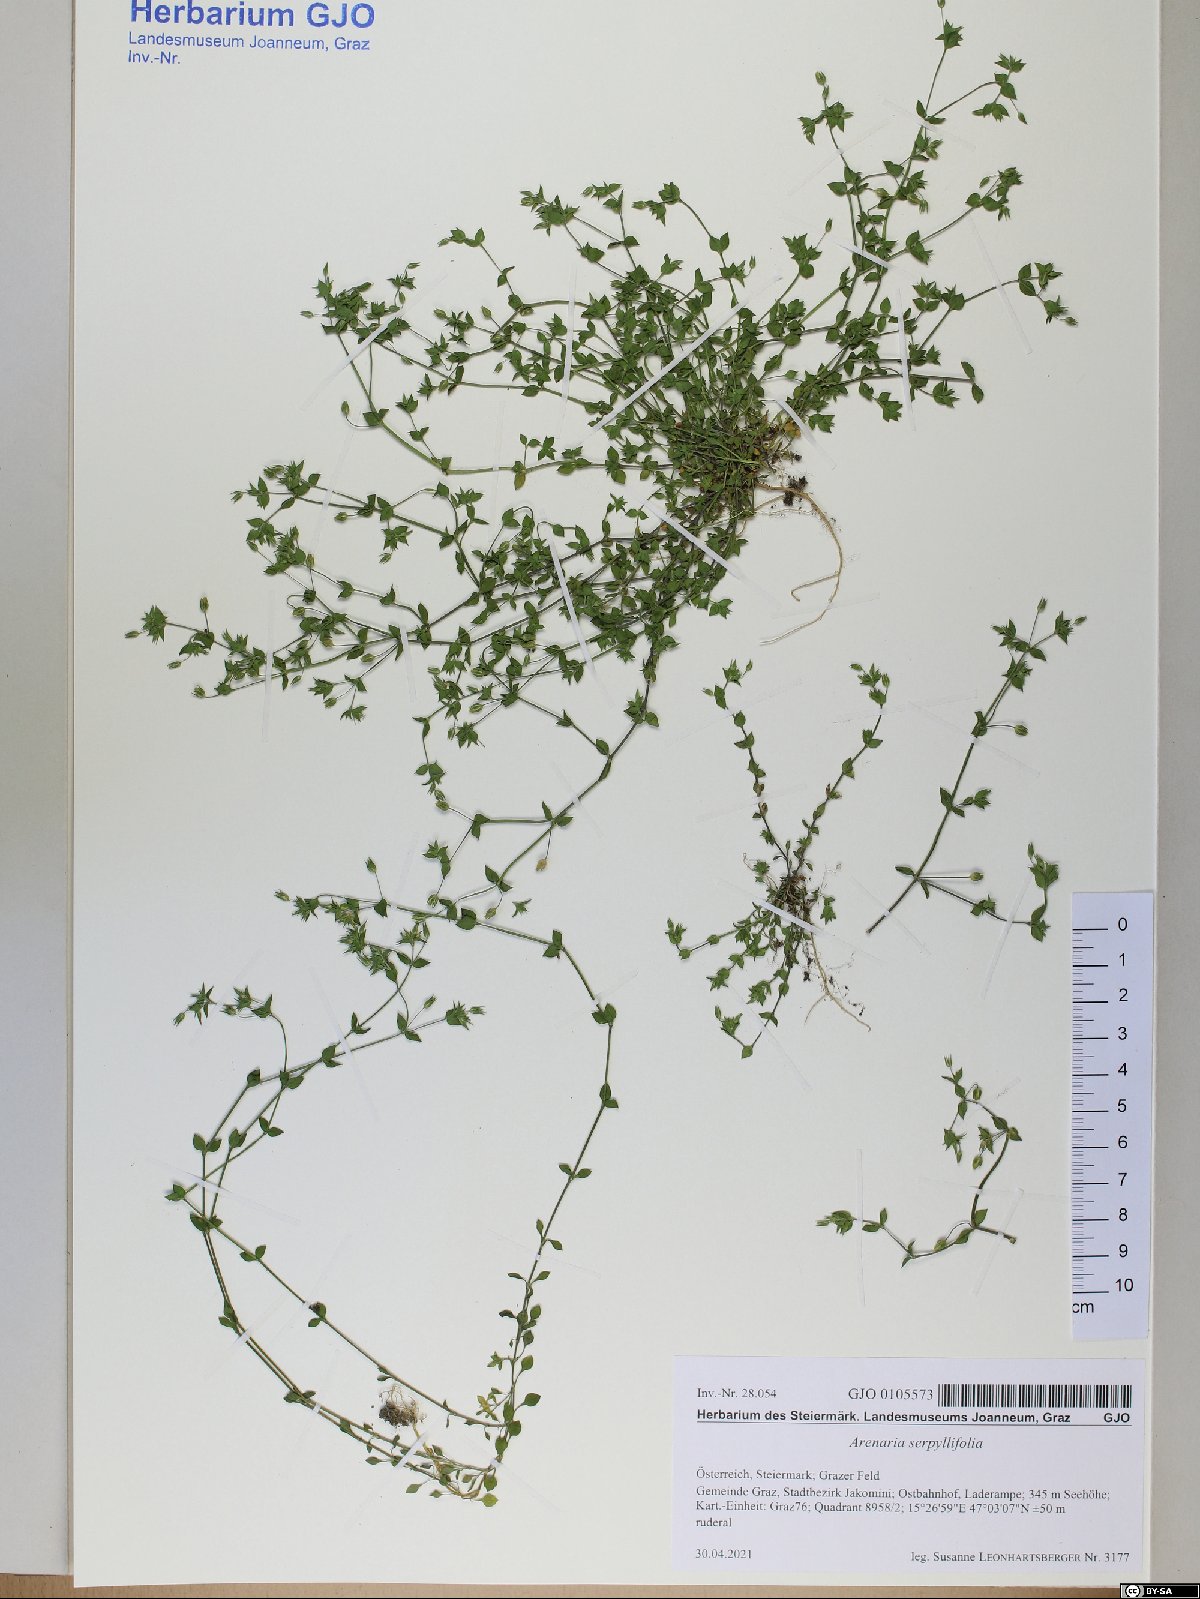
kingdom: Plantae
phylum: Tracheophyta
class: Magnoliopsida
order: Caryophyllales
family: Caryophyllaceae
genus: Arenaria
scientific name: Arenaria serpyllifolia
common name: Thyme-leaved sandwort
